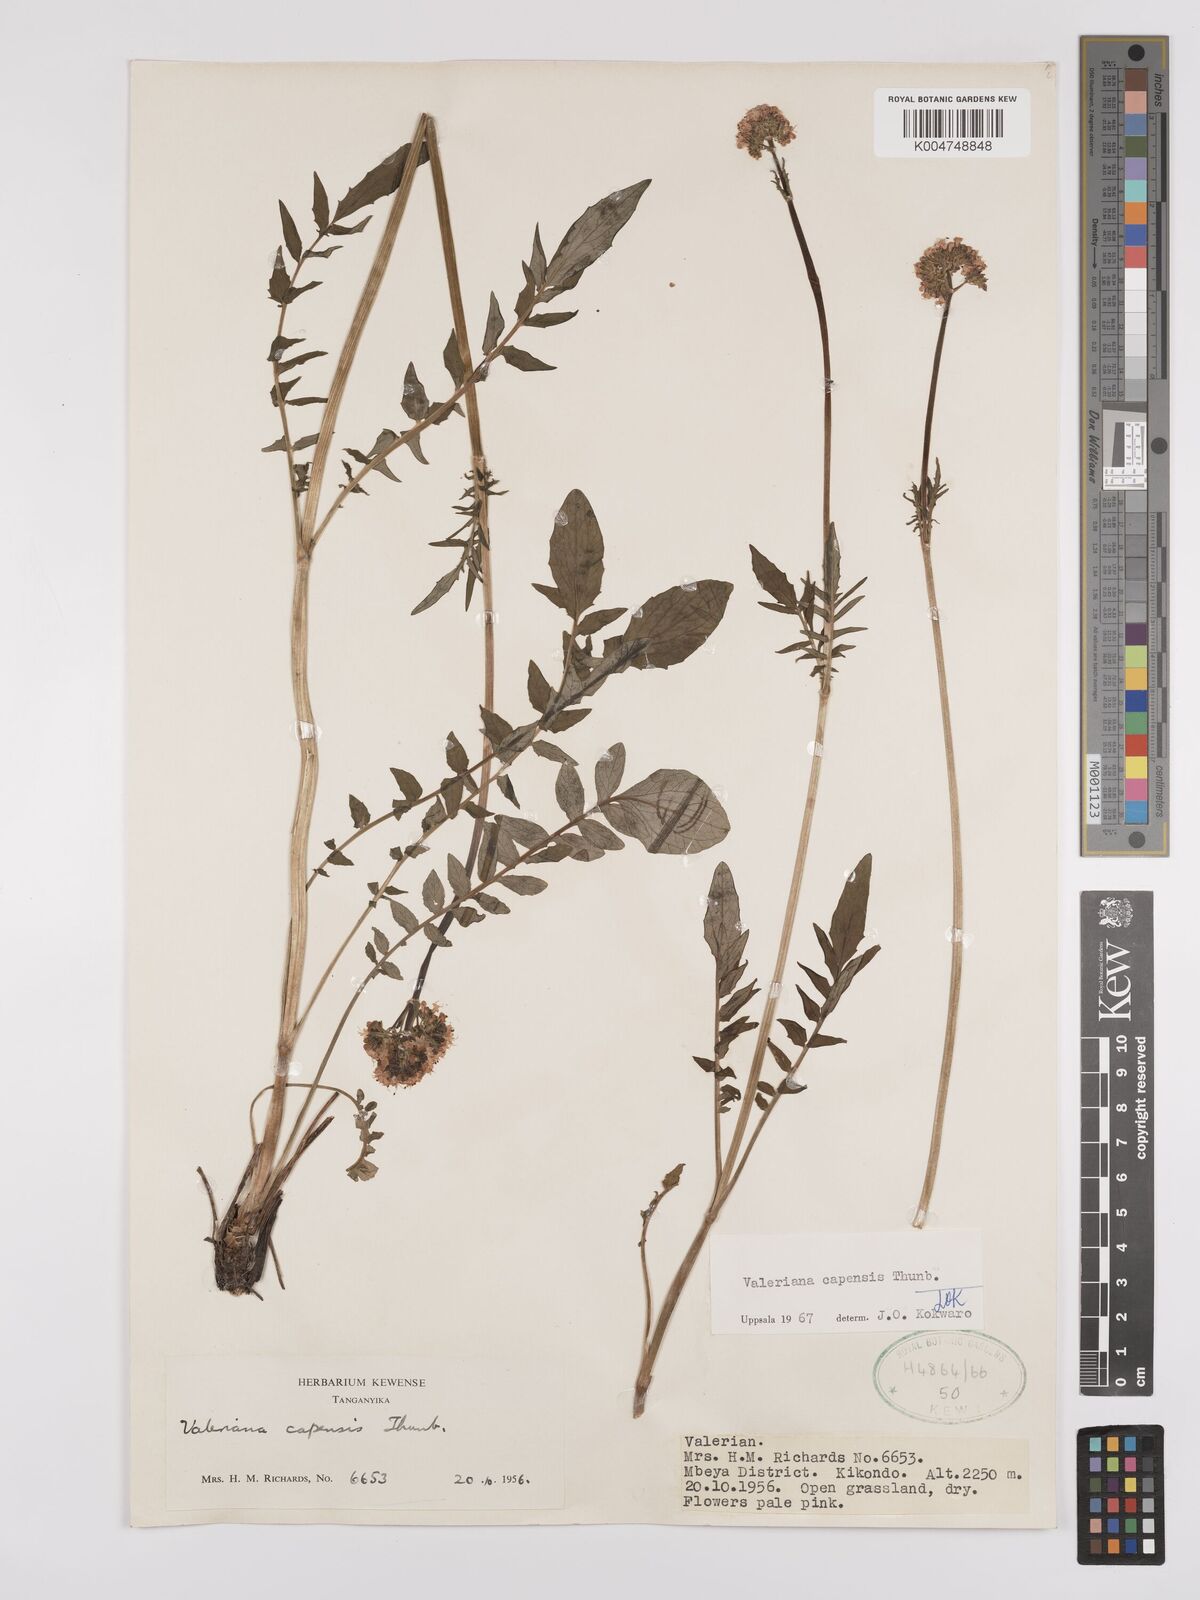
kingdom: Plantae
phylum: Tracheophyta
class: Magnoliopsida
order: Dipsacales
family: Caprifoliaceae
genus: Valeriana
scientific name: Valeriana capensis
